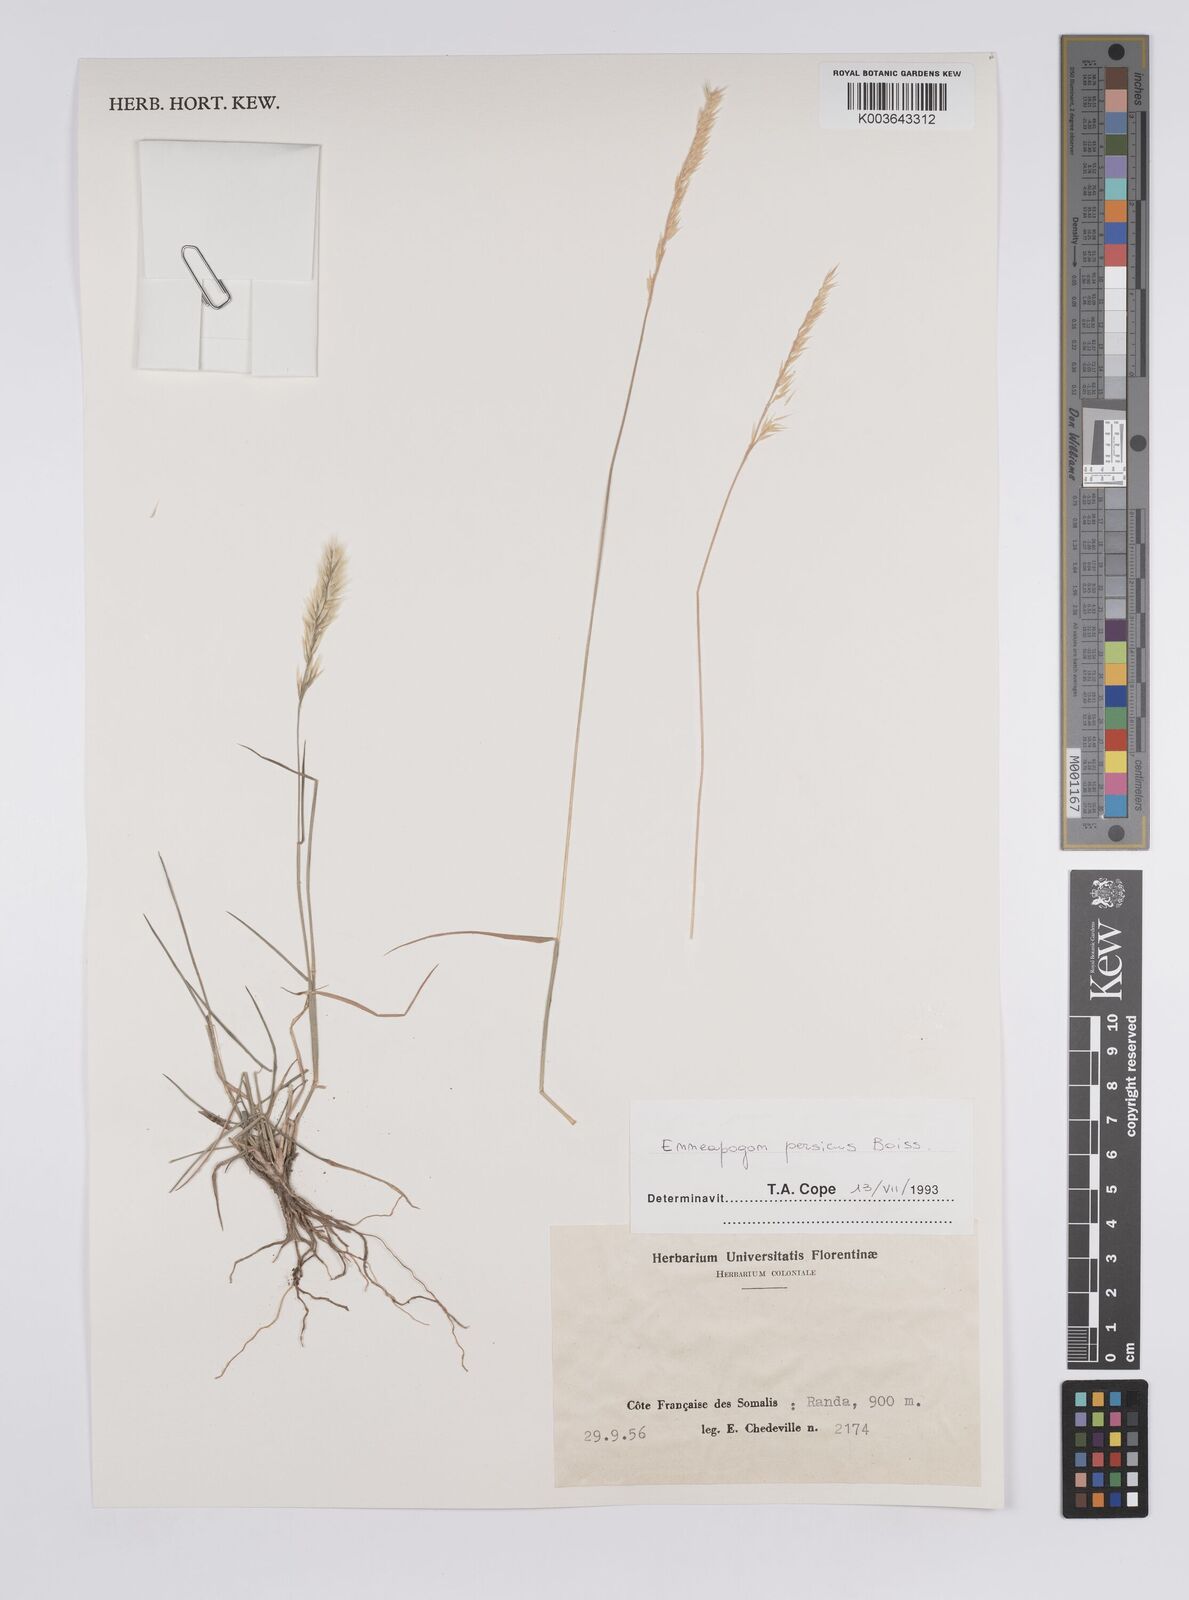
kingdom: Plantae
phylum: Tracheophyta
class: Liliopsida
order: Poales
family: Poaceae
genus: Enneapogon
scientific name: Enneapogon persicus
